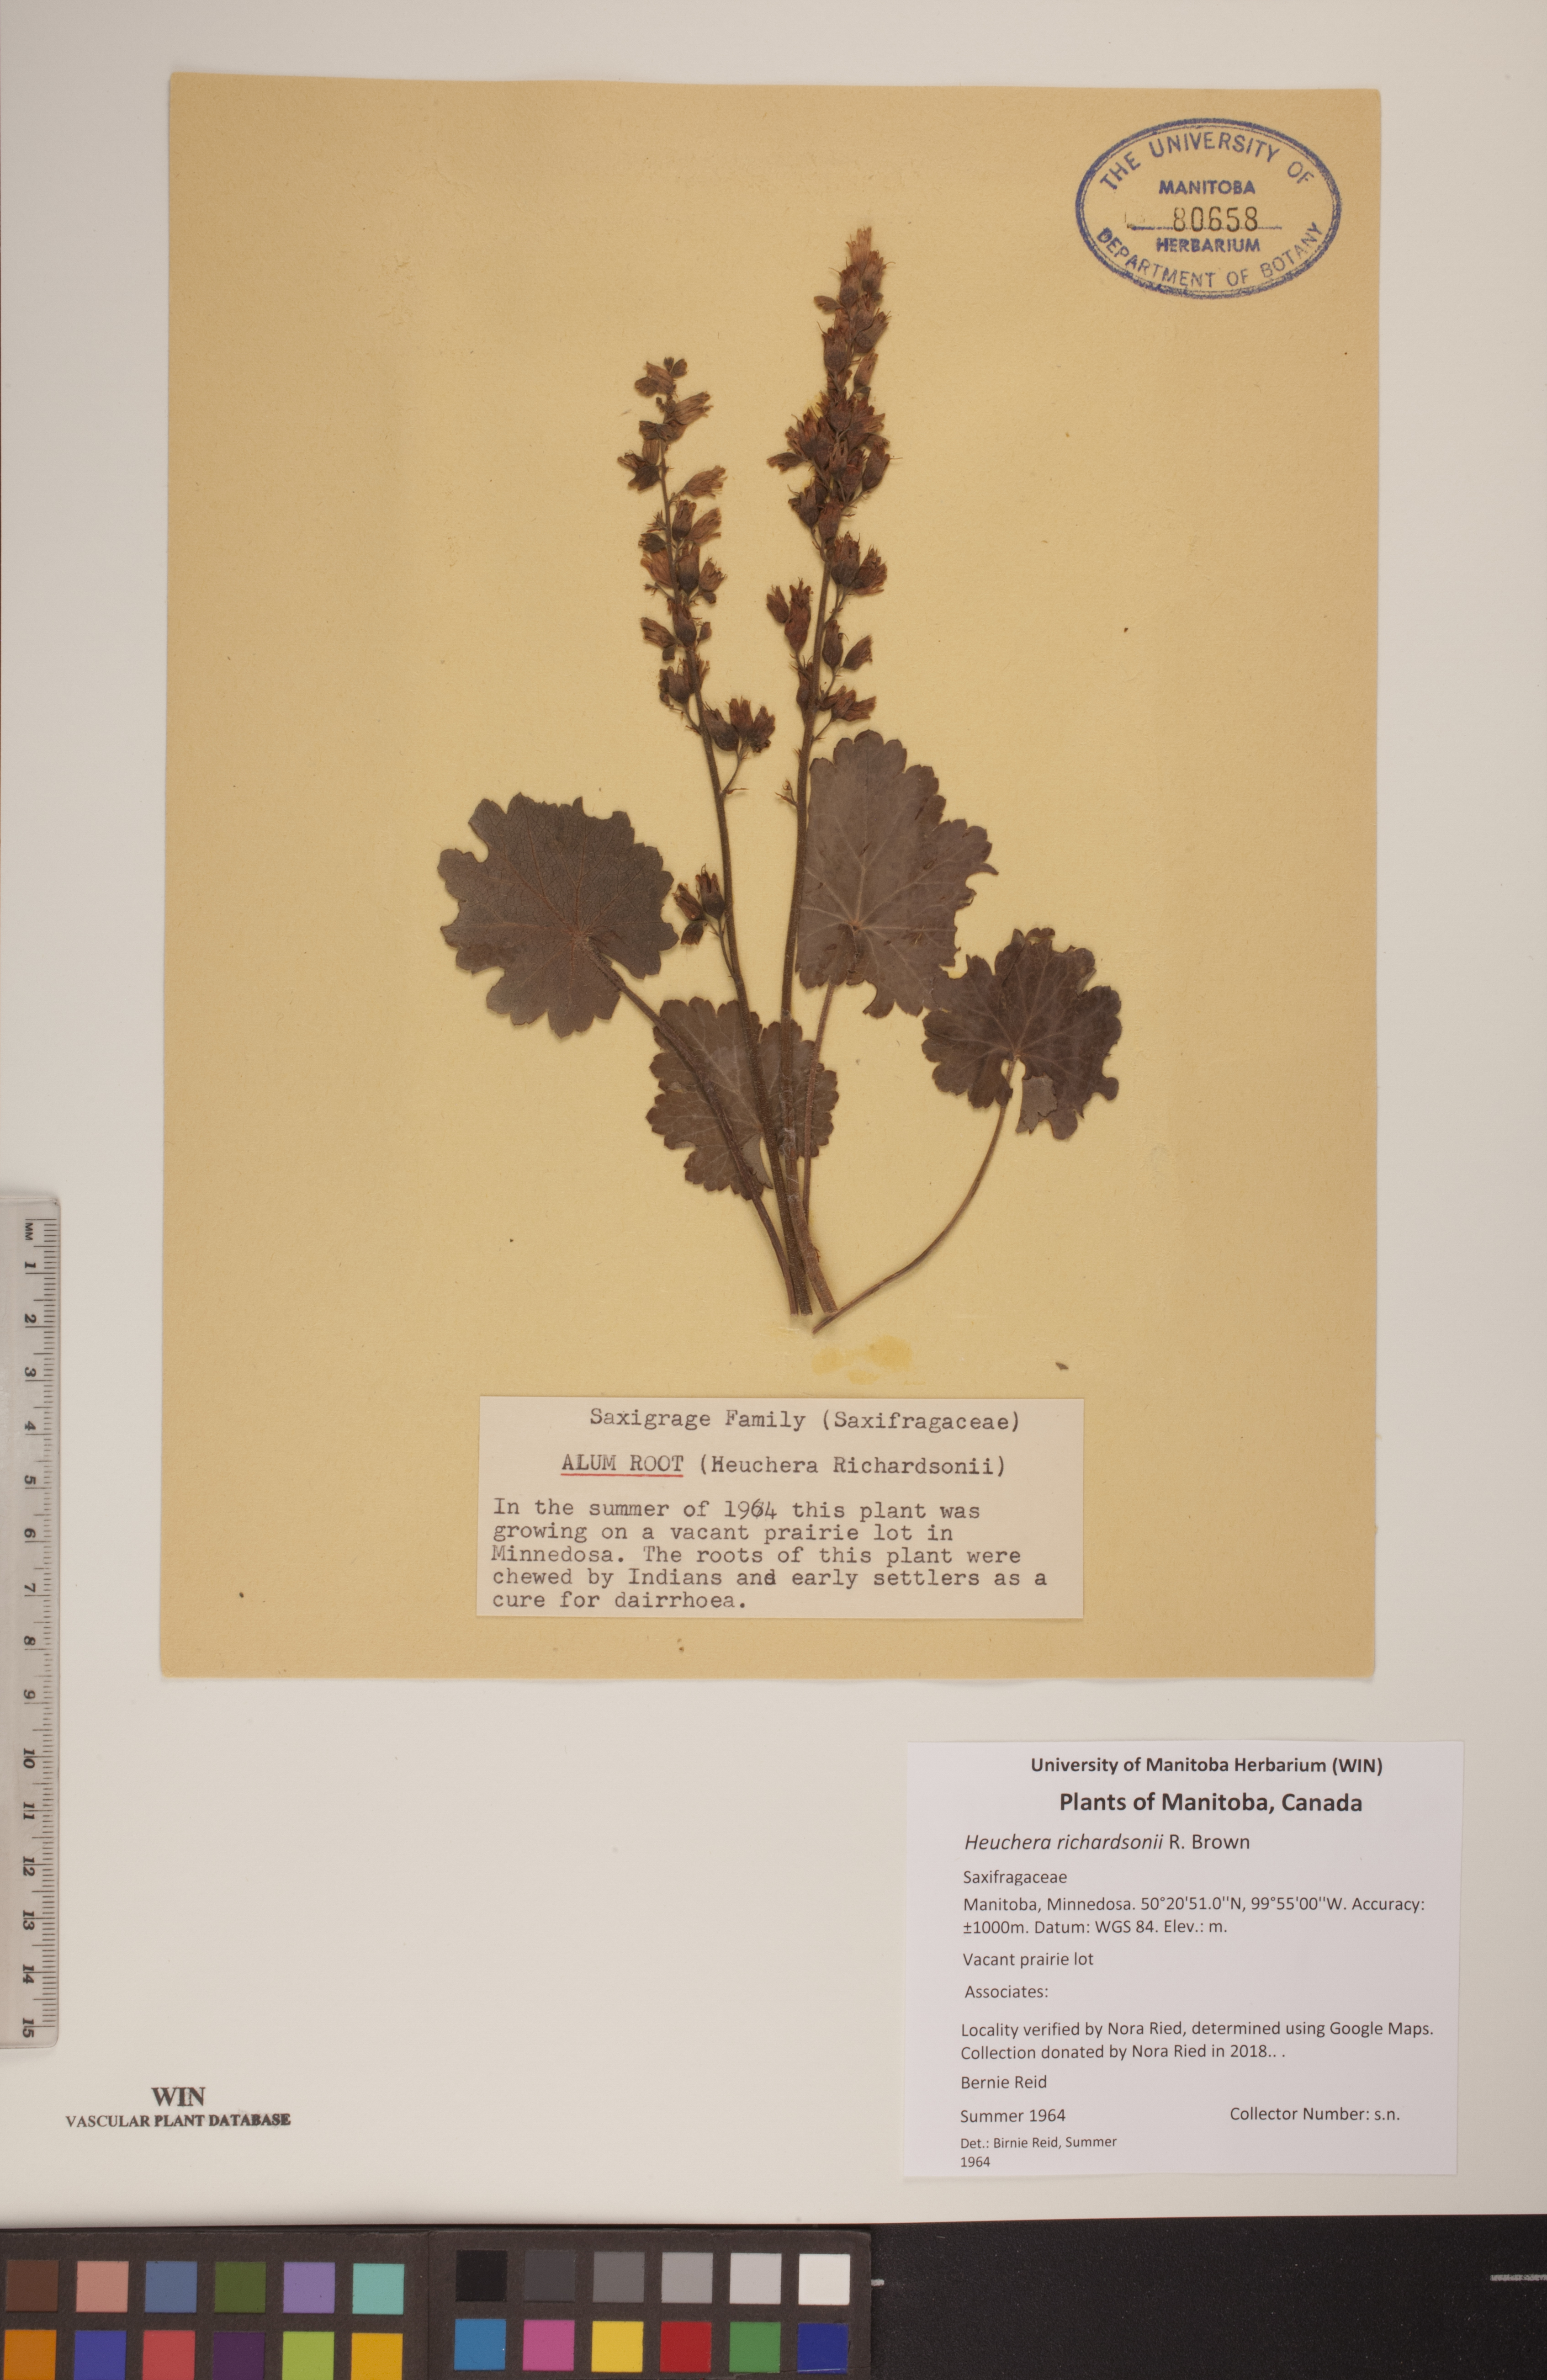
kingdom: Plantae
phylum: Tracheophyta
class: Magnoliopsida
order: Saxifragales
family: Saxifragaceae
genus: Heuchera
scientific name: Heuchera richardsonii
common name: Richardson's alumroot
